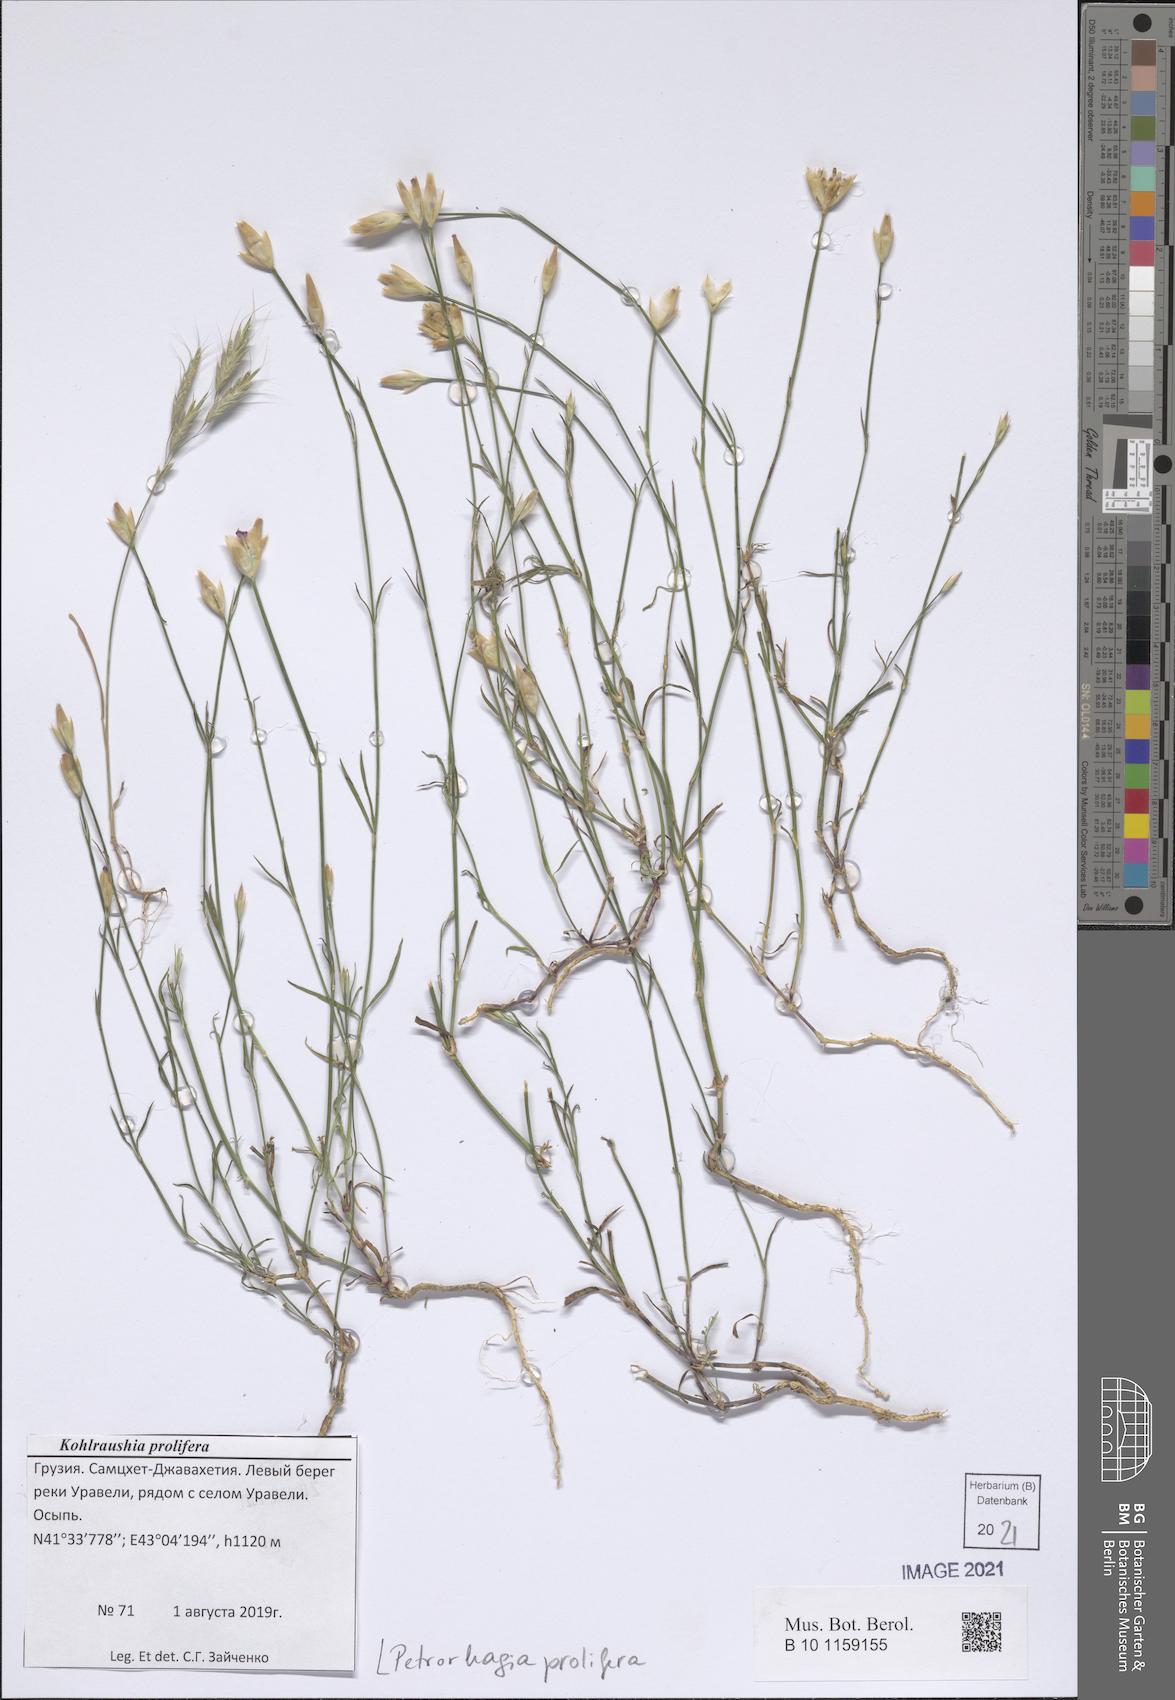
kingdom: Plantae
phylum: Tracheophyta
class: Magnoliopsida
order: Caryophyllales
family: Caryophyllaceae
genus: Petrorhagia
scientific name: Petrorhagia prolifera
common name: Proliferous pink
